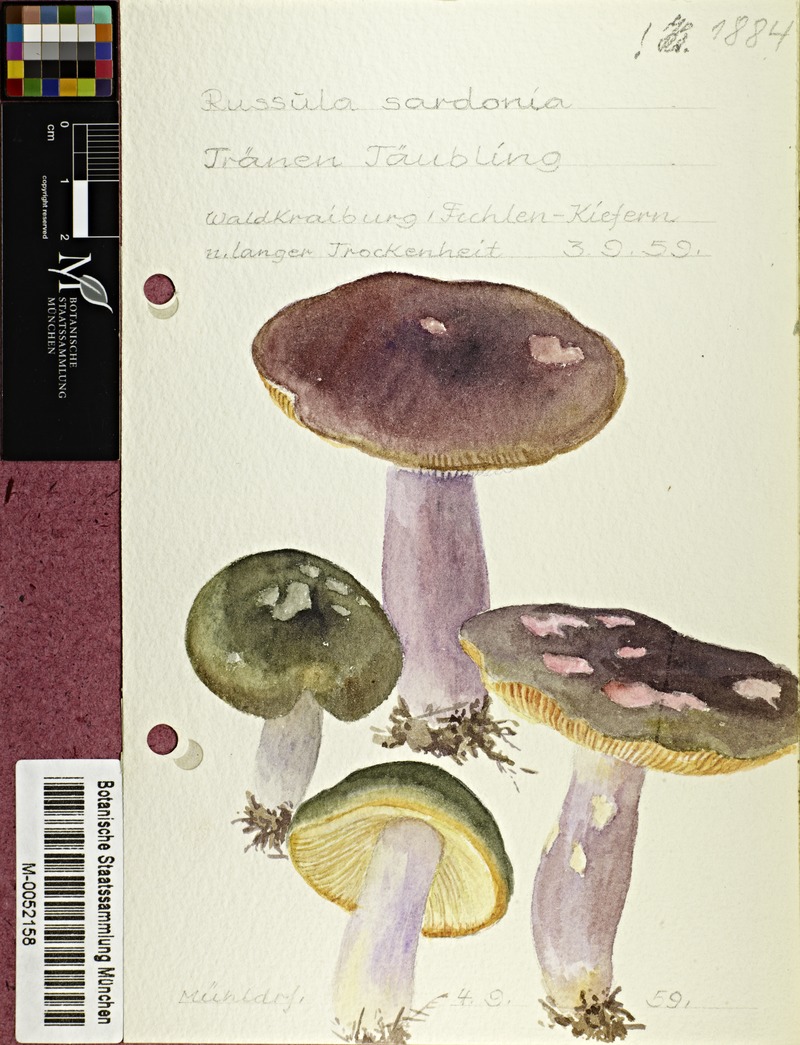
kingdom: Fungi
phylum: Basidiomycota
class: Agaricomycetes
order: Russulales
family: Russulaceae
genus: Russula
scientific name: Russula sardonia
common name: Primrose brittlegill
